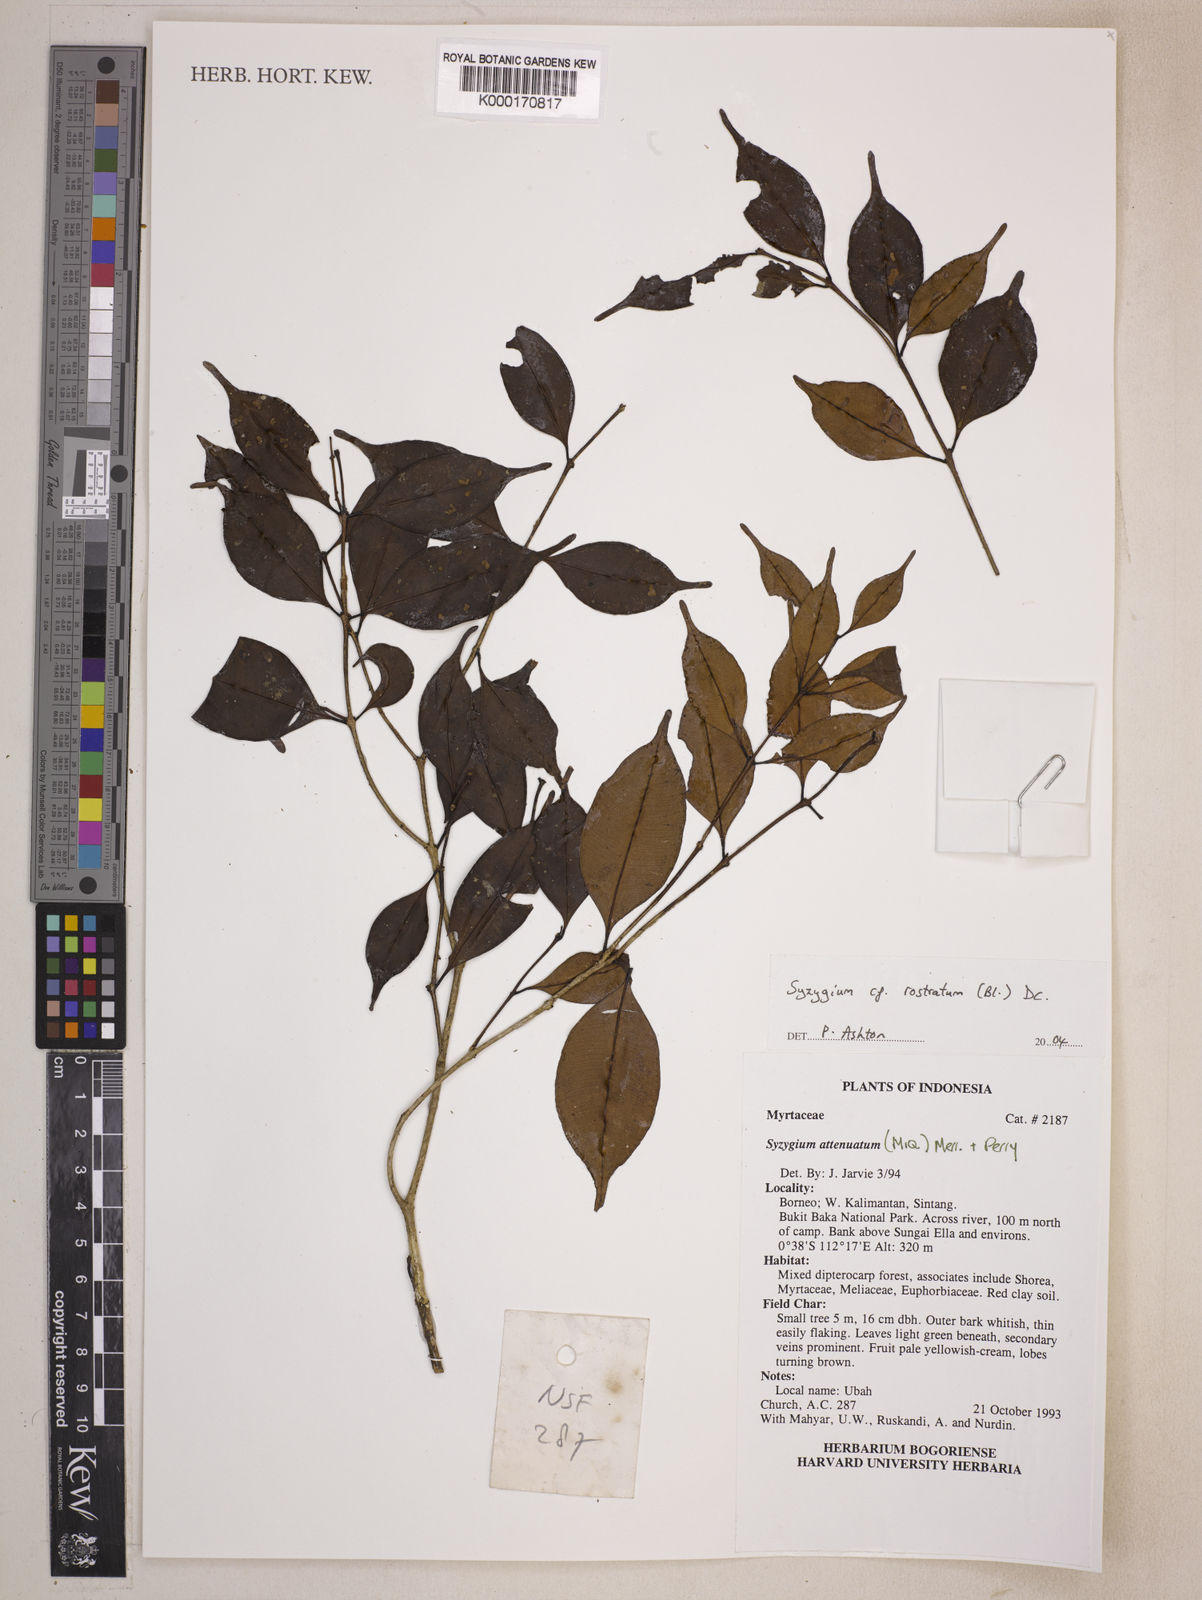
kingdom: Plantae
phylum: Tracheophyta
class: Magnoliopsida
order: Myrtales
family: Myrtaceae
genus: Syzygium
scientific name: Syzygium rostratum
